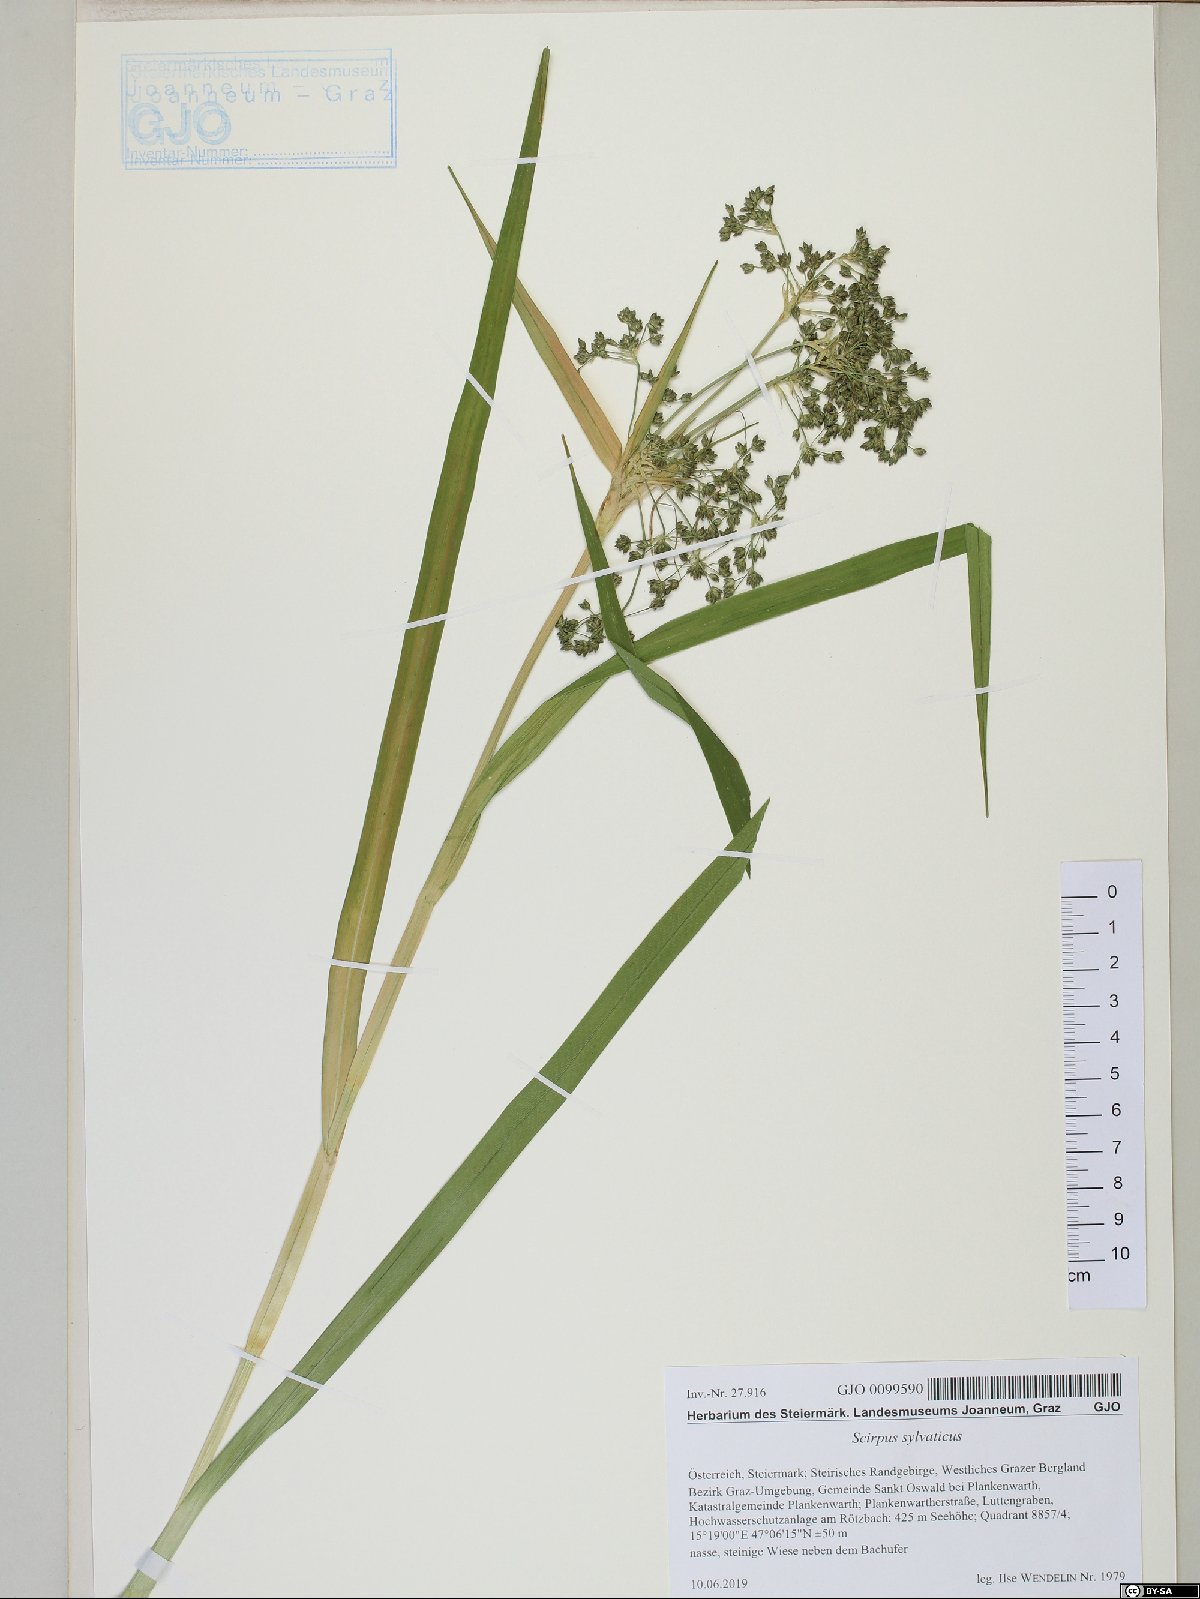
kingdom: Plantae
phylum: Tracheophyta
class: Liliopsida
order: Poales
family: Cyperaceae
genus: Scirpus
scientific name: Scirpus sylvaticus
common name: Wood club-rush
